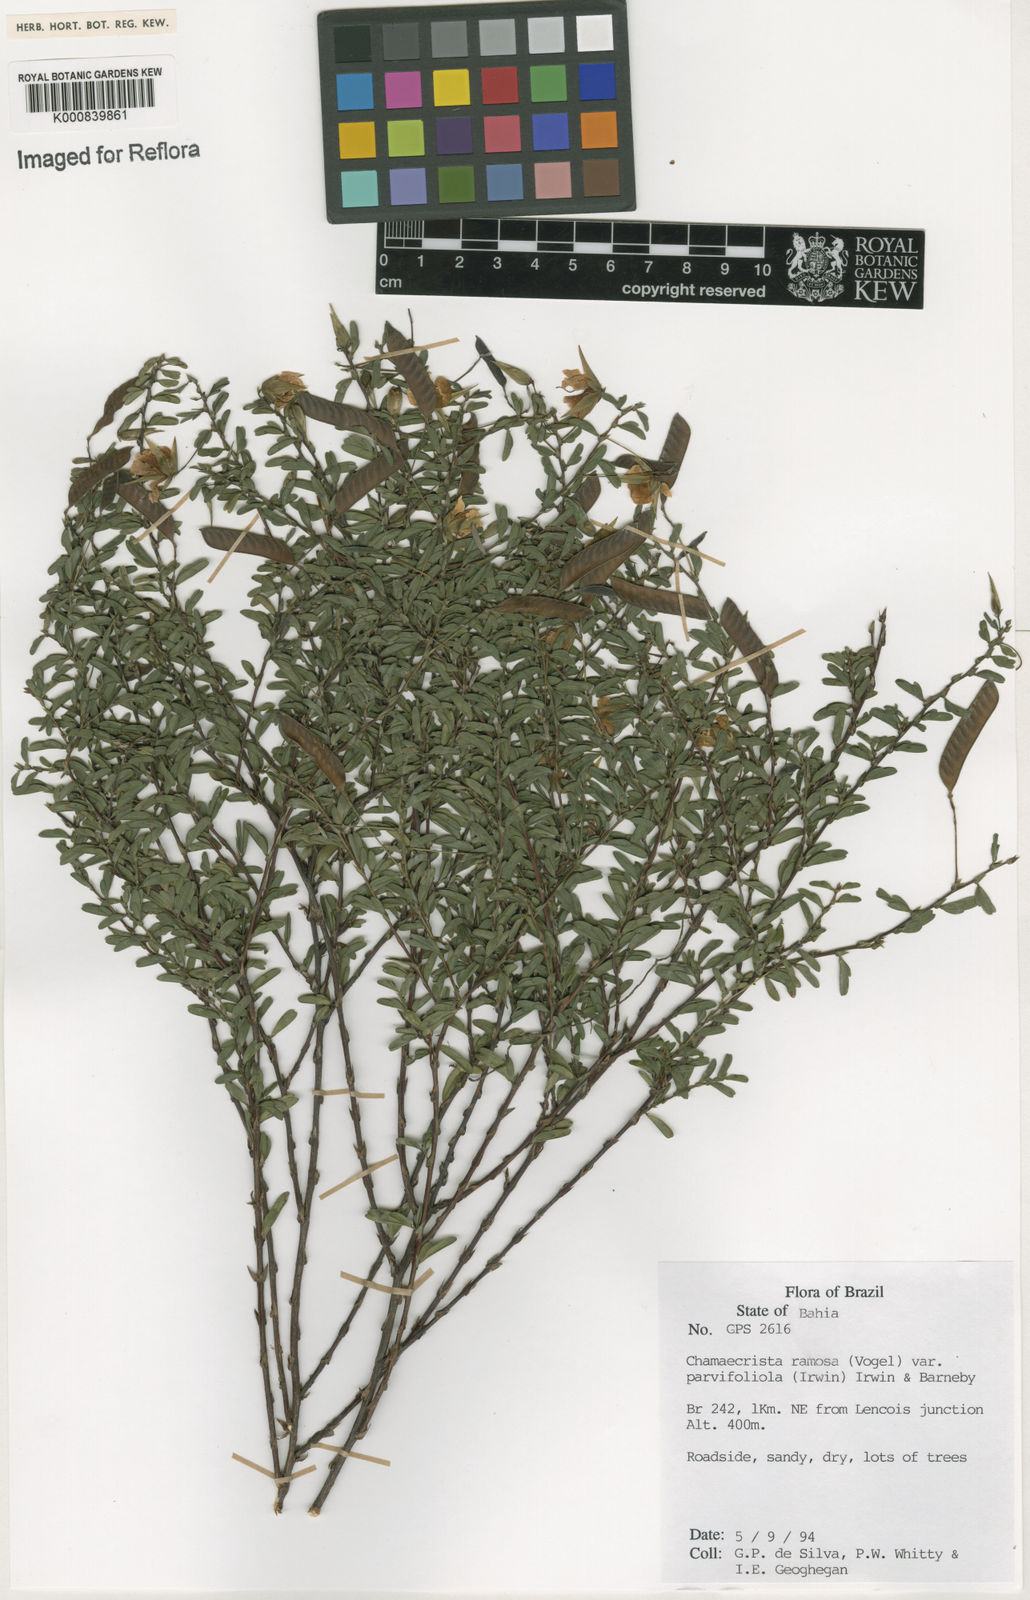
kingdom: Plantae
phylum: Tracheophyta
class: Magnoliopsida
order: Fabales
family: Fabaceae
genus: Chamaecrista
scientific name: Chamaecrista ramosa
